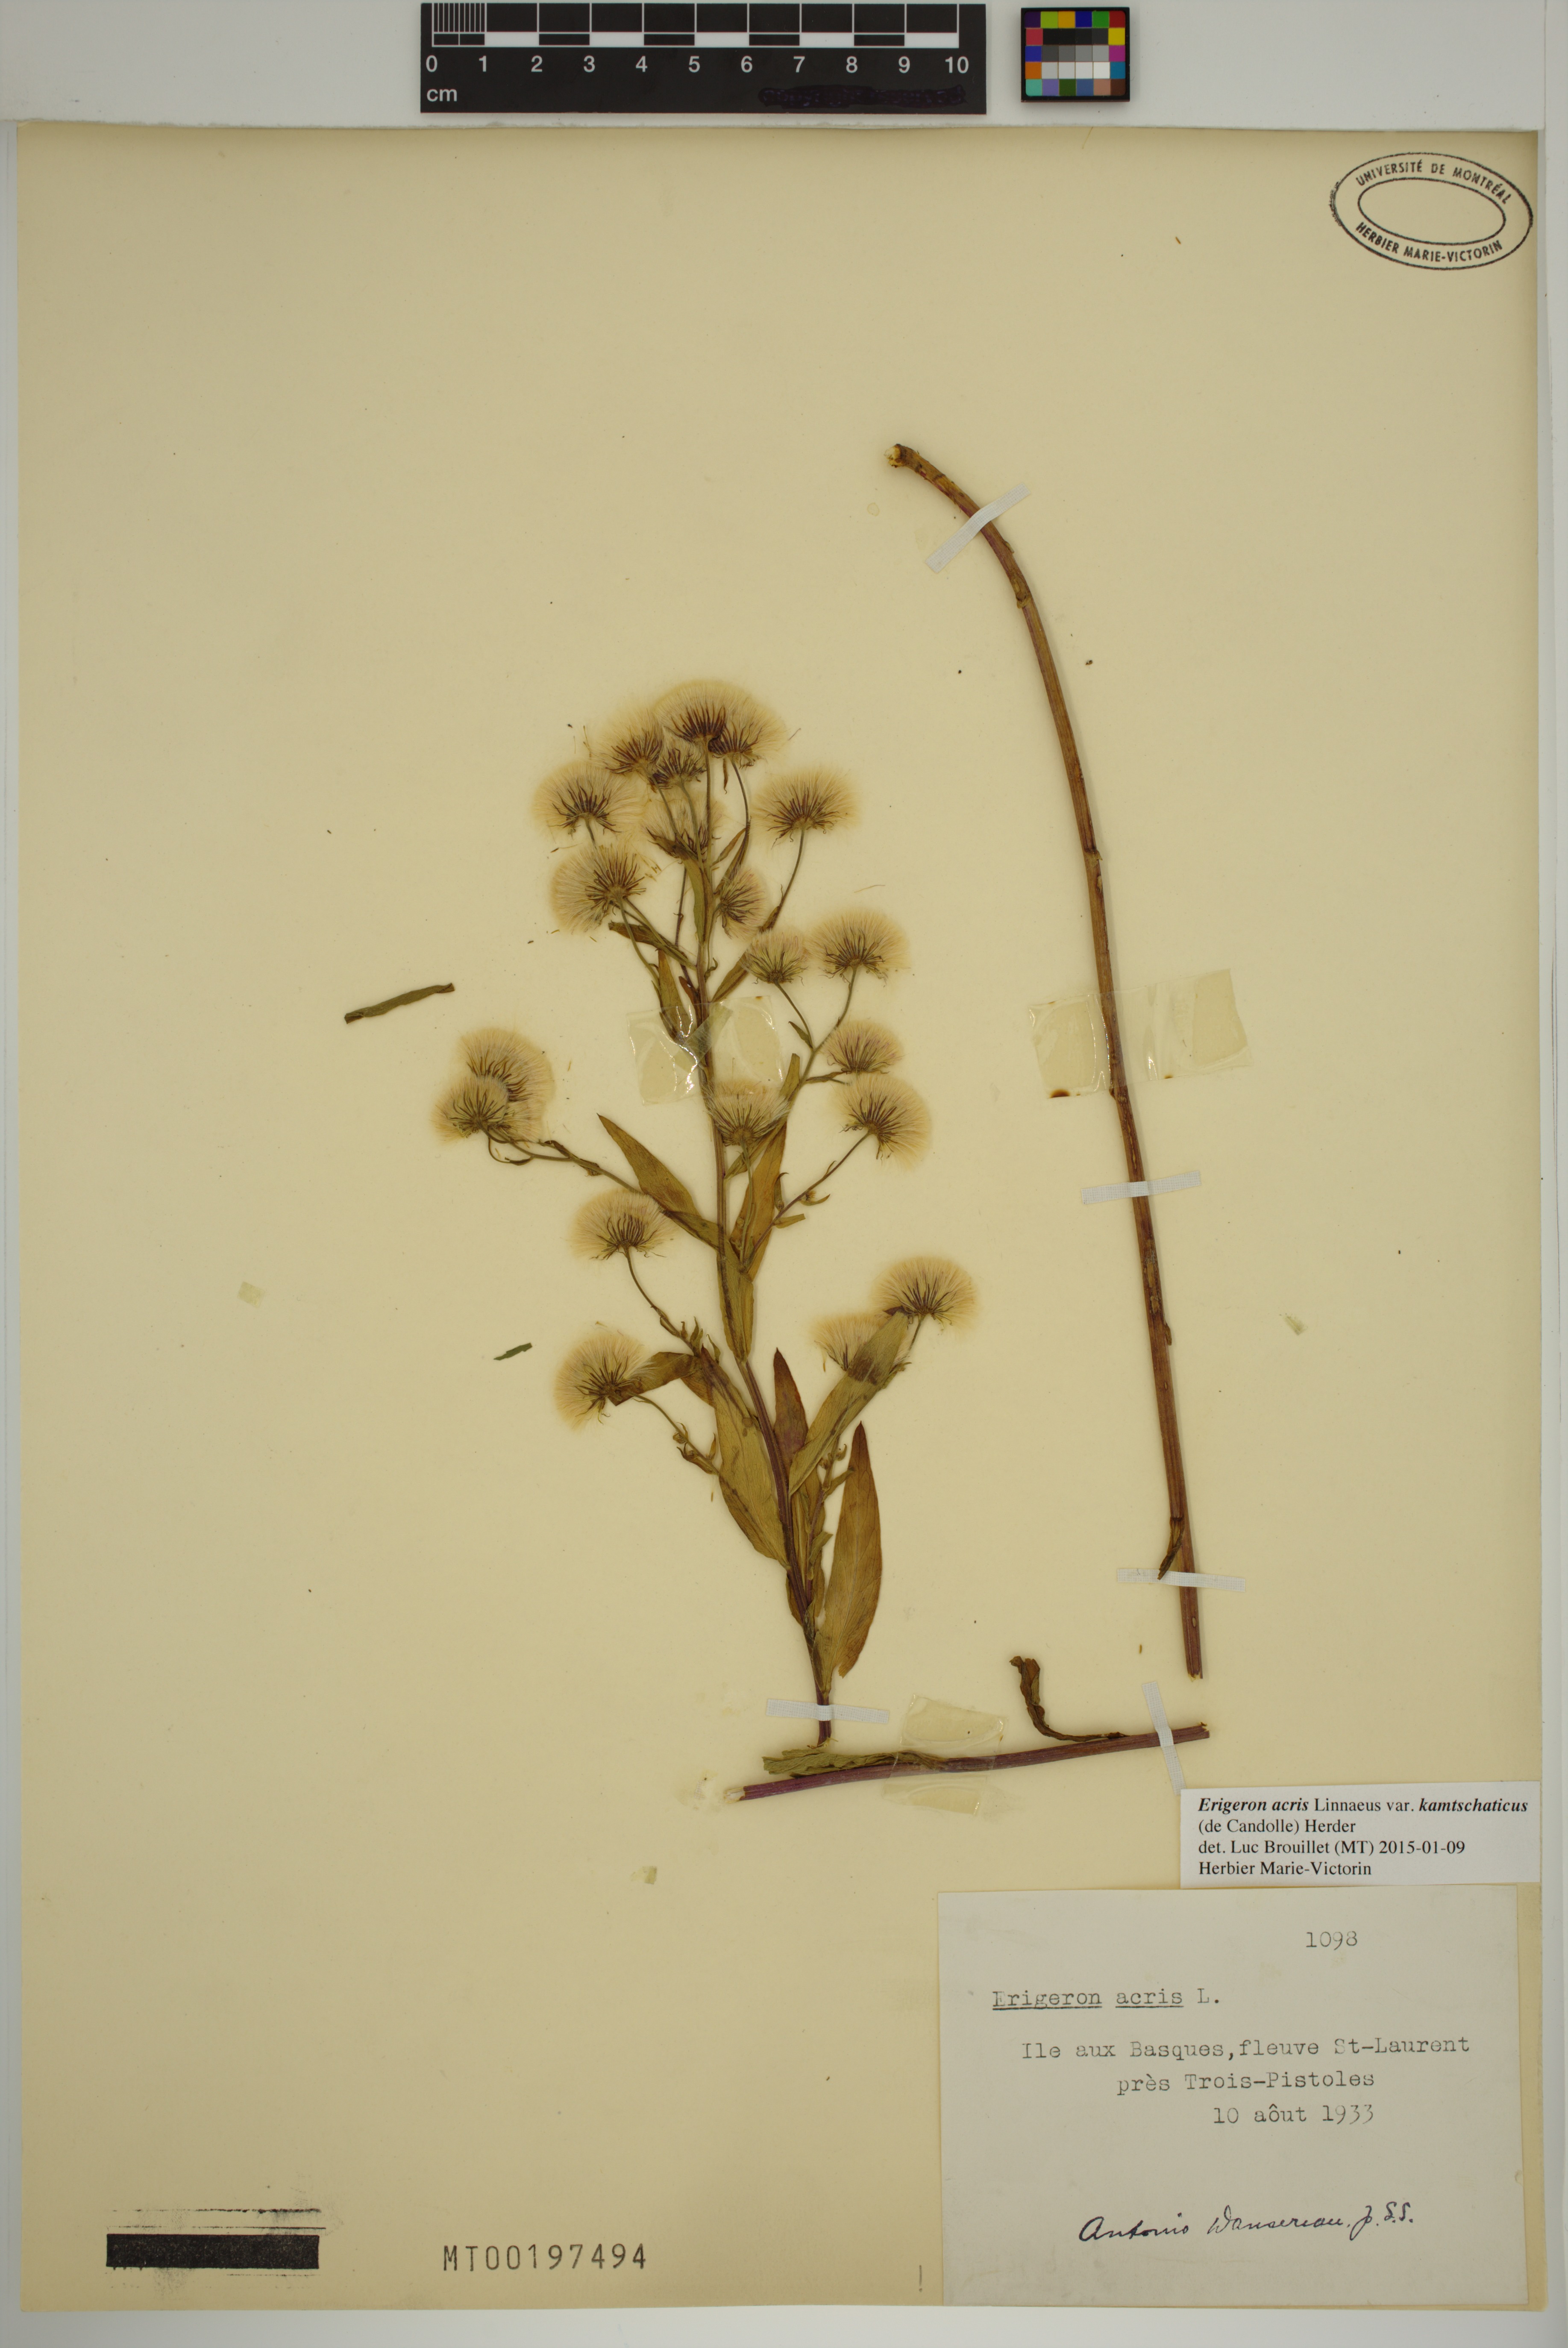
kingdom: Plantae
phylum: Tracheophyta
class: Magnoliopsida
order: Asterales
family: Asteraceae
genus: Erigeron
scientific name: Erigeron kamtschaticus
